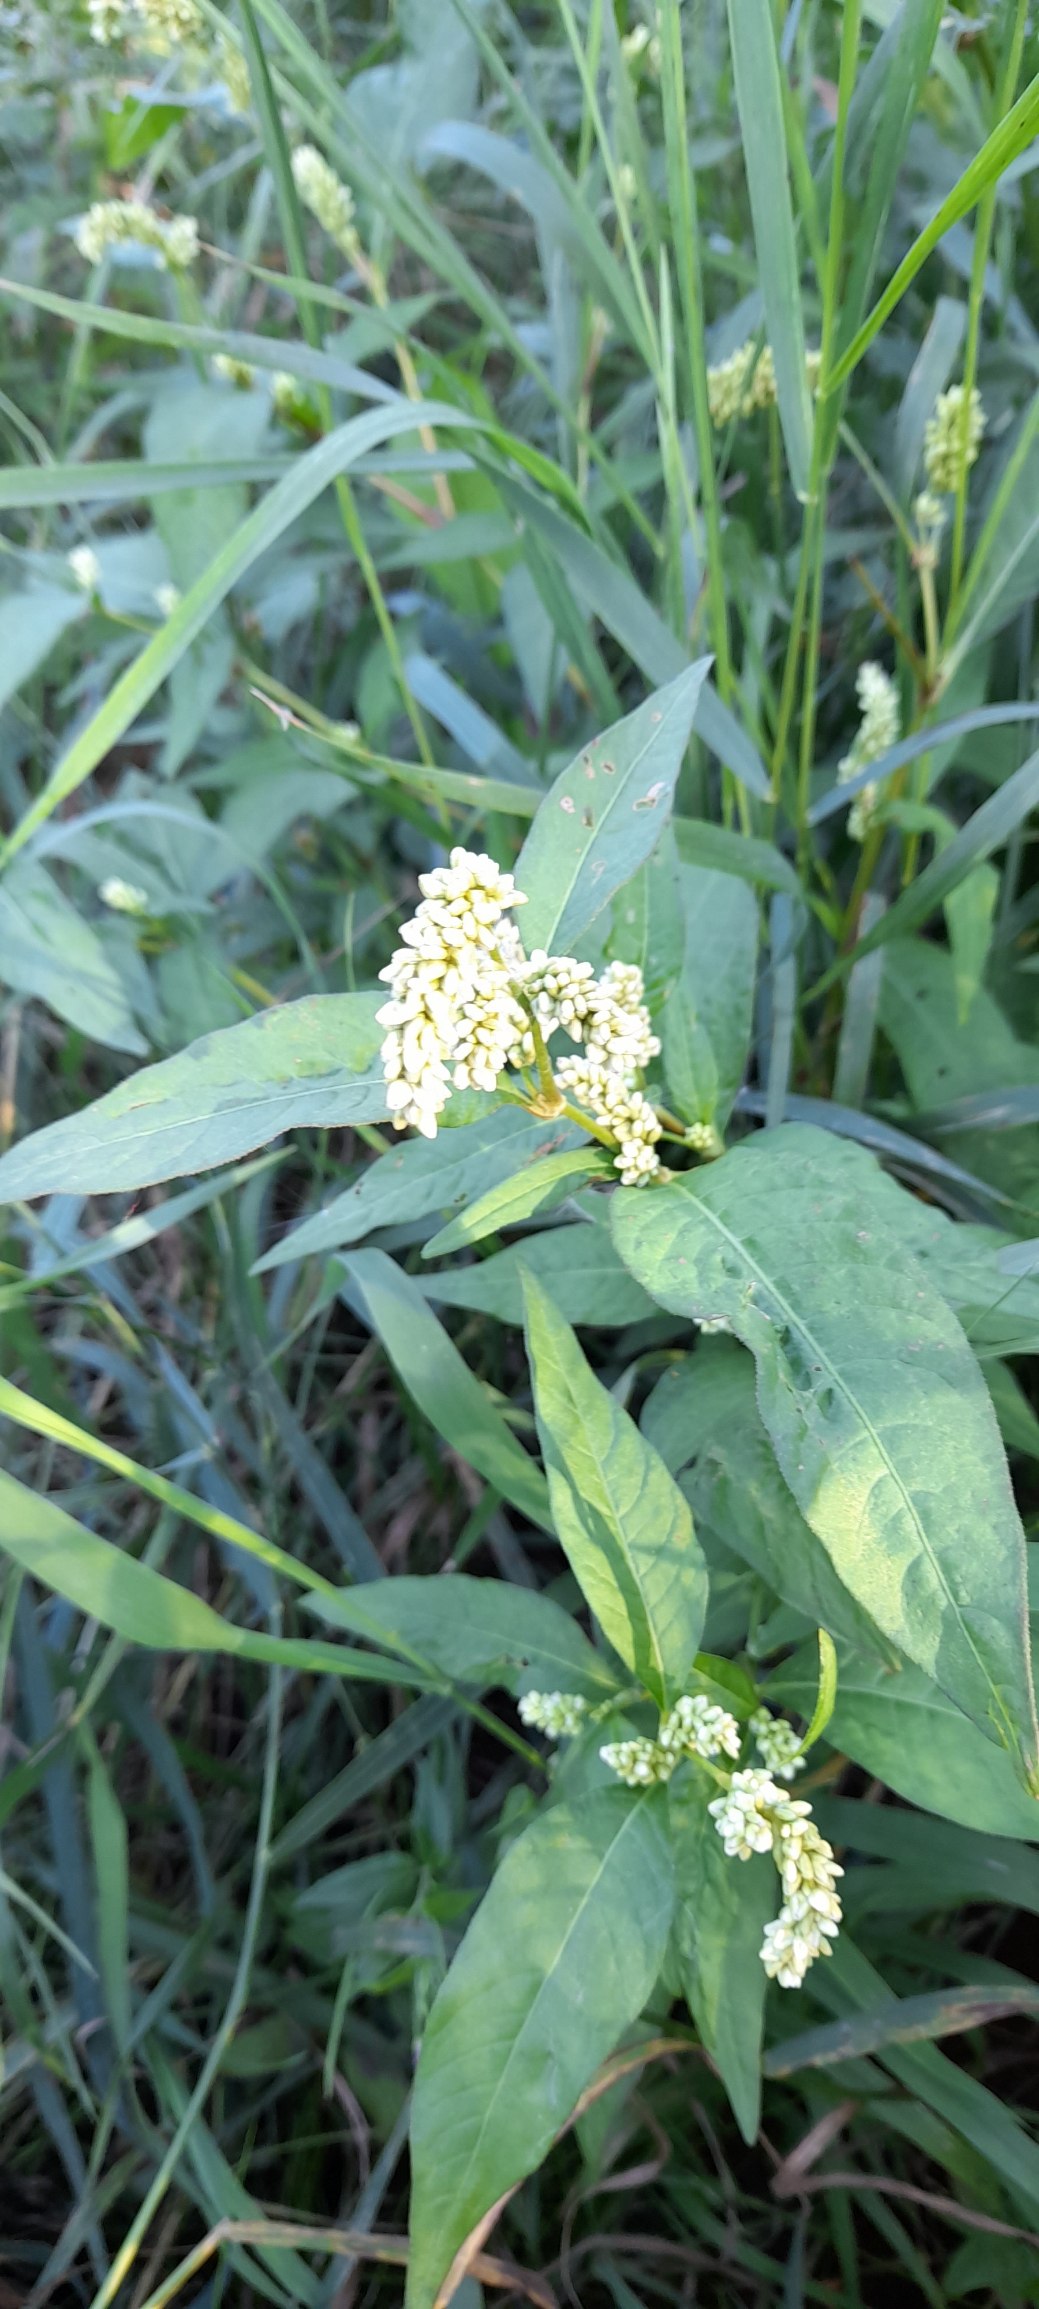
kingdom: Plantae
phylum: Tracheophyta
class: Magnoliopsida
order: Caryophyllales
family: Polygonaceae
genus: Persicaria
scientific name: Persicaria lapathifolia
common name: Knudet pileurt
